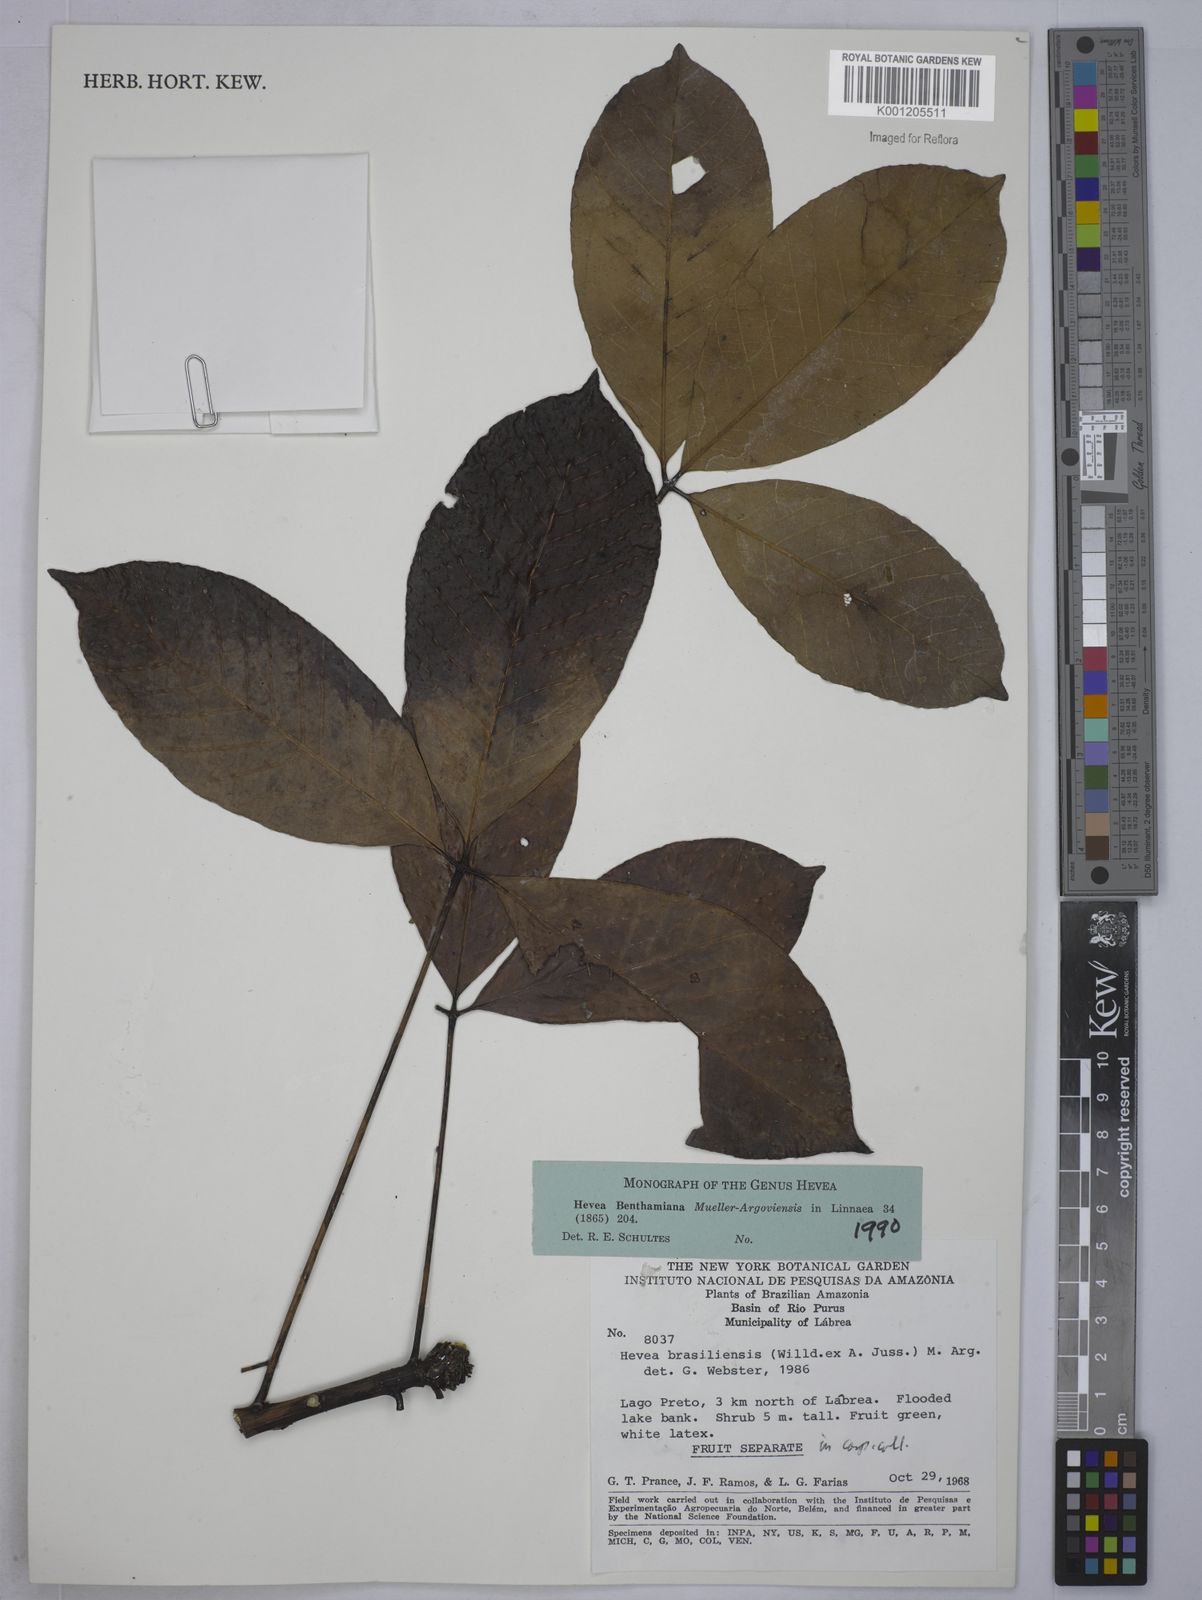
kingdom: Plantae
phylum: Tracheophyta
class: Magnoliopsida
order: Malpighiales
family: Euphorbiaceae
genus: Hevea
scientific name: Hevea
